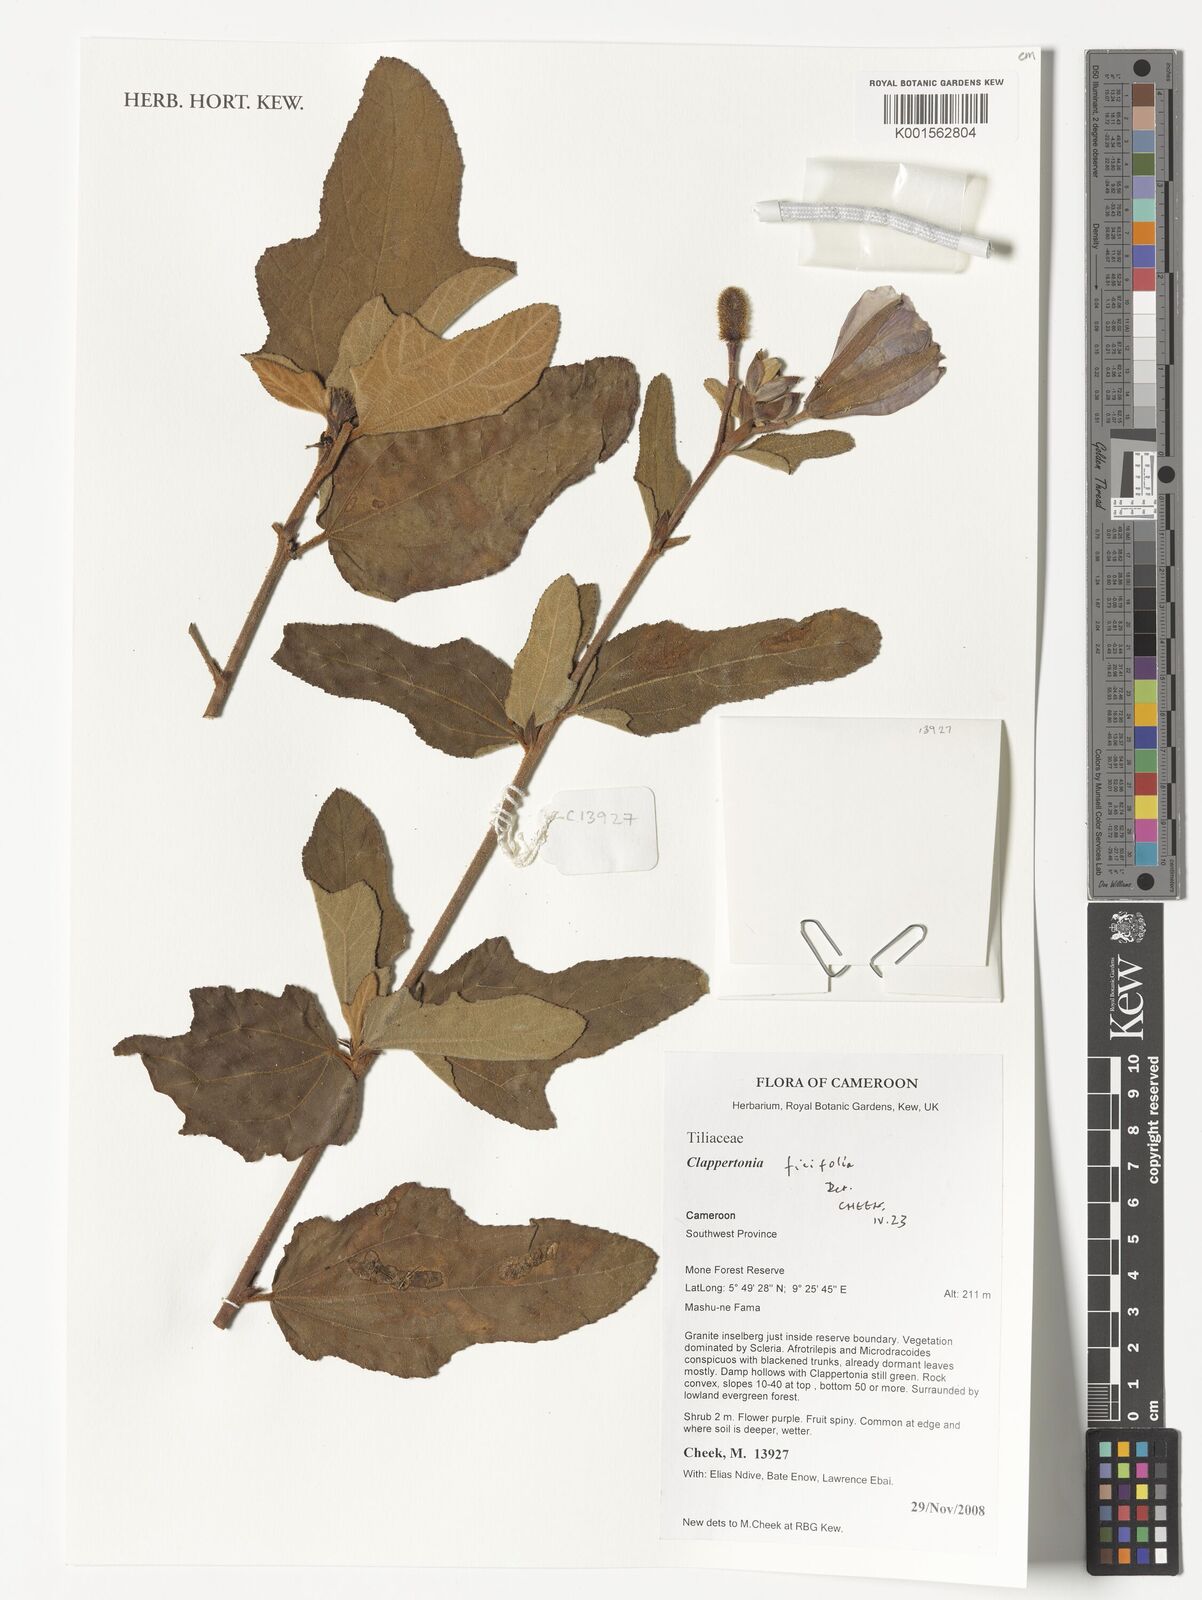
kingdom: Plantae
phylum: Tracheophyta
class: Magnoliopsida
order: Malvales
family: Malvaceae
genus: Clappertonia
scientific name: Clappertonia ficifolia
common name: Bolo-bolo
